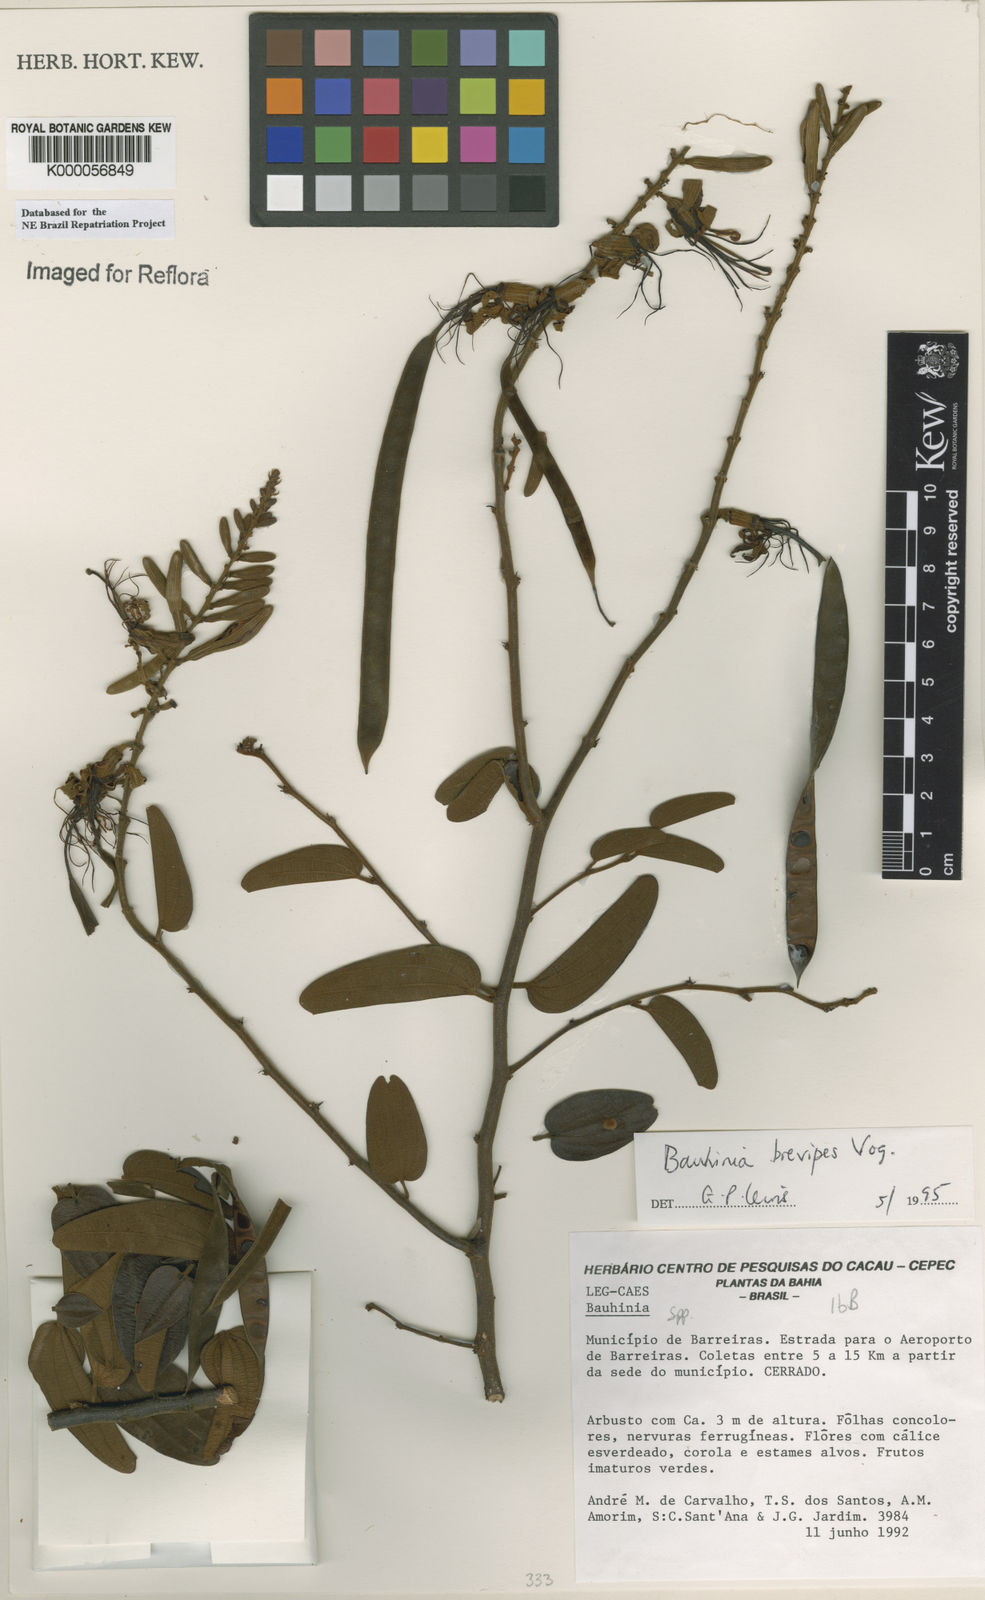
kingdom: Plantae
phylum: Tracheophyta
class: Magnoliopsida
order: Fabales
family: Fabaceae
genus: Bauhinia
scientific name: Bauhinia brevipes
